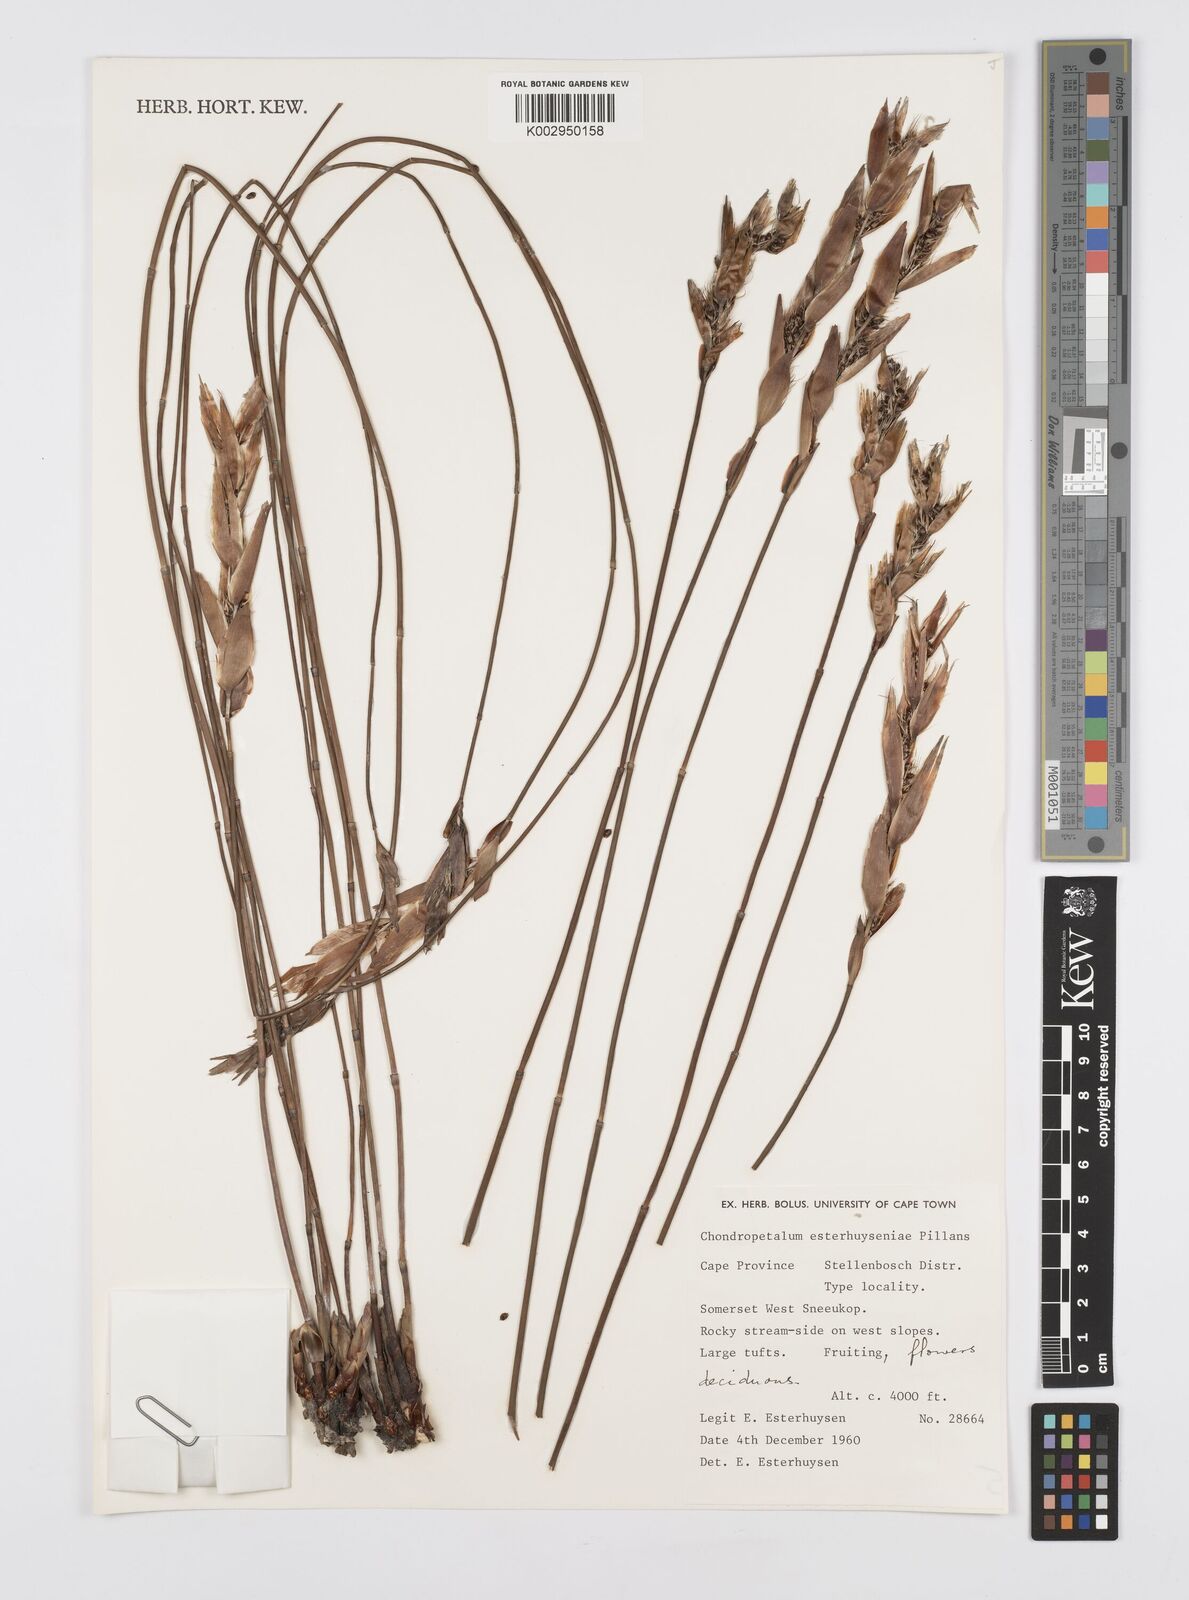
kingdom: Plantae
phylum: Tracheophyta
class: Liliopsida
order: Poales
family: Restionaceae
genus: Askidiosperma
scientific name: Askidiosperma esterhuyseniae
